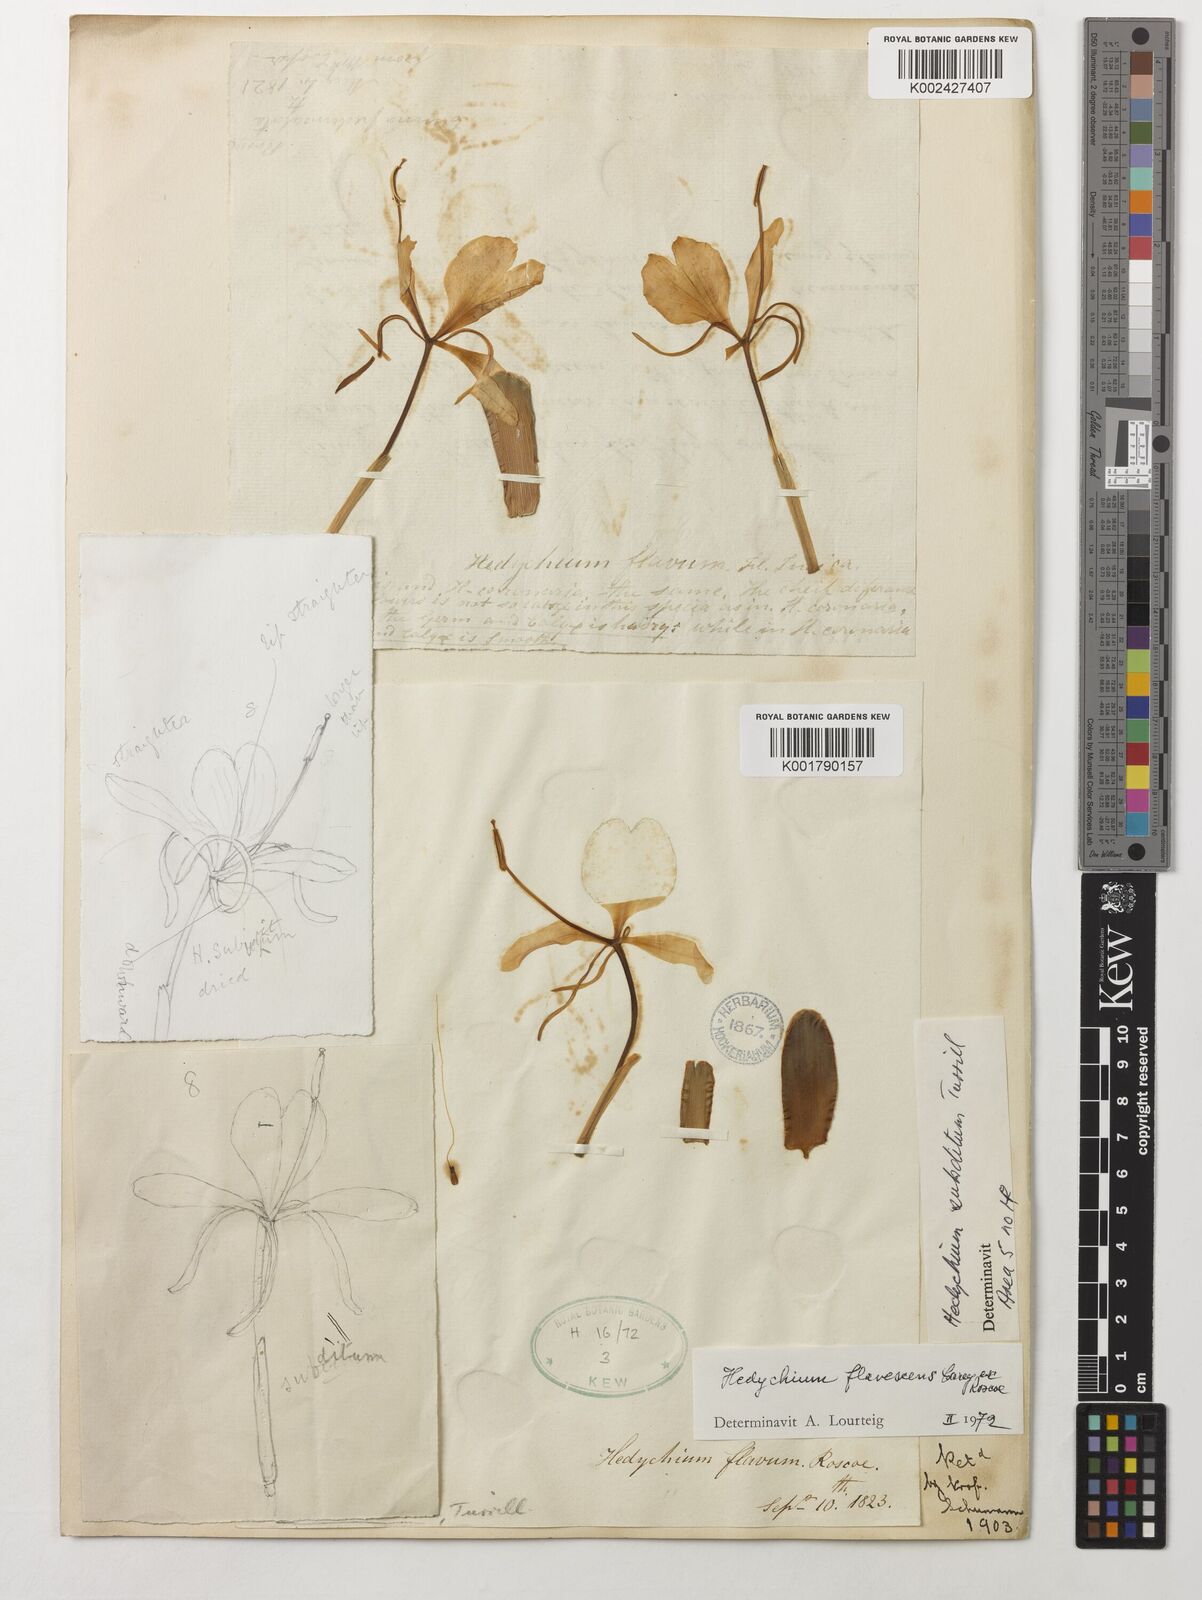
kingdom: Plantae
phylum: Tracheophyta
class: Liliopsida
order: Zingiberales
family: Zingiberaceae
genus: Hedychium
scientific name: Hedychium flavescens
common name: Yellow ginger
